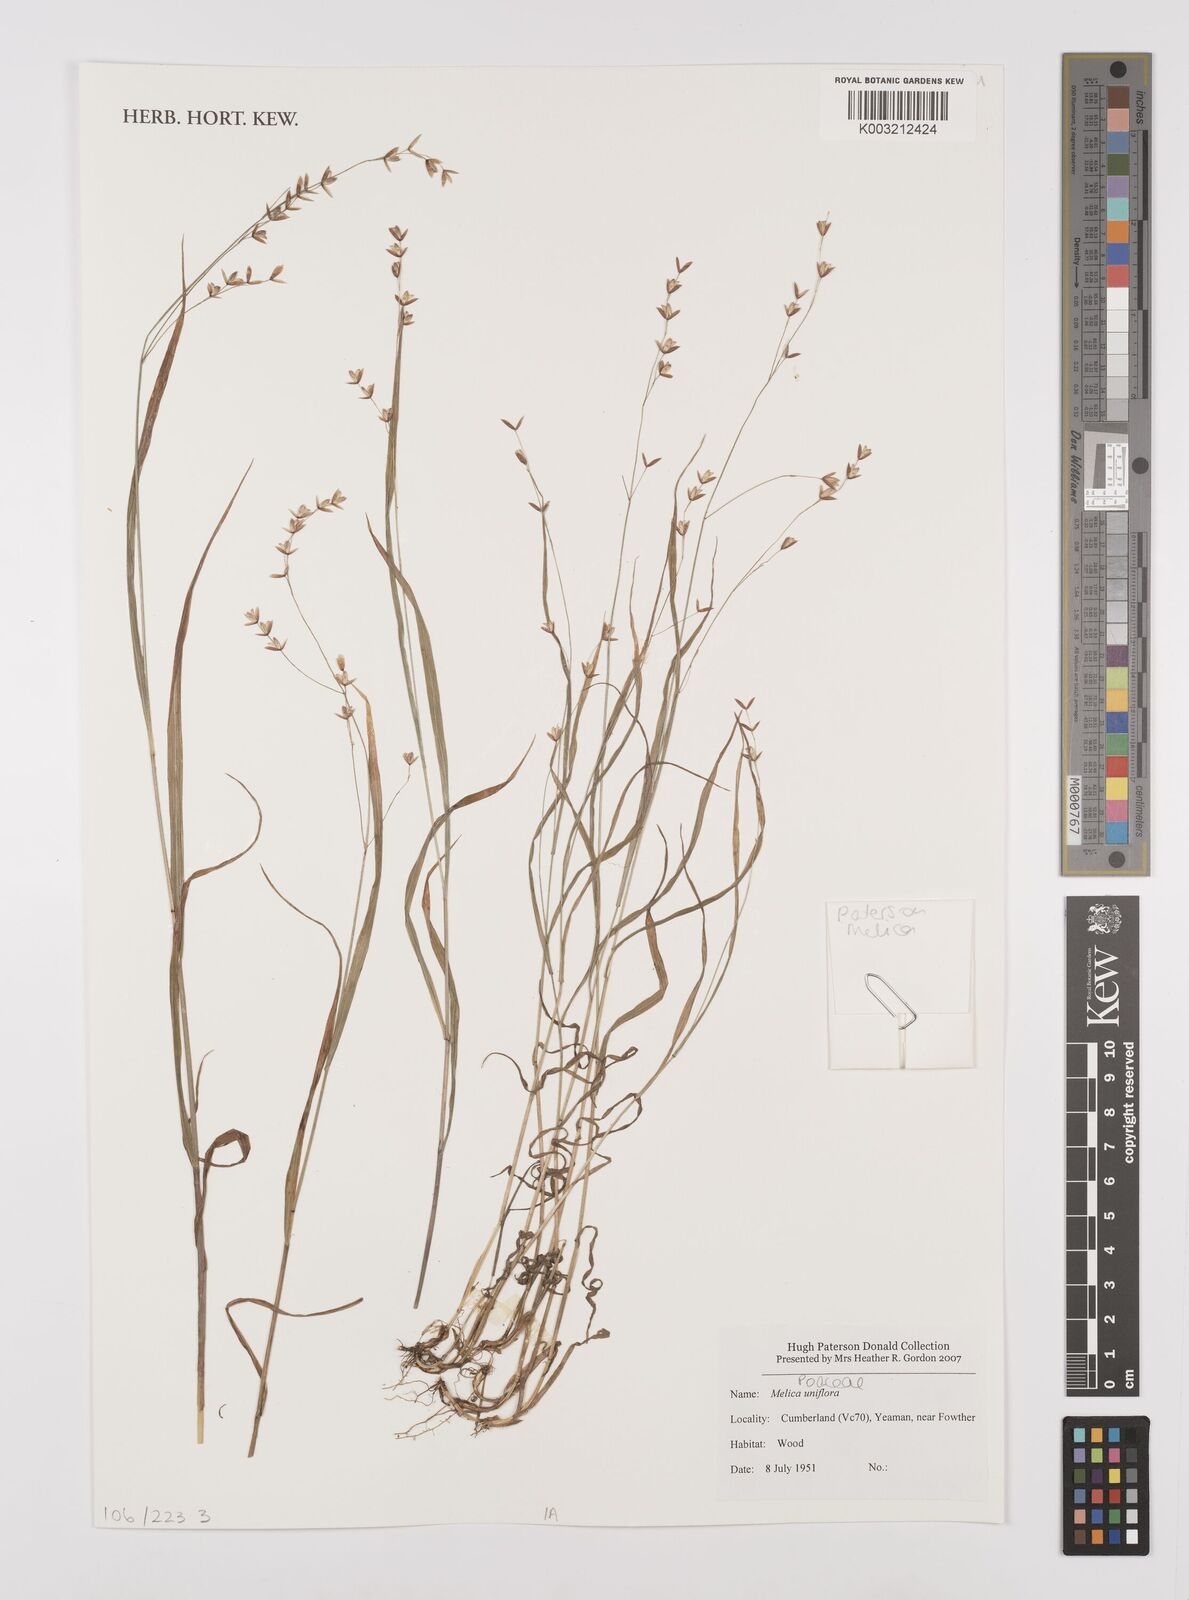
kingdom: Plantae
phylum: Tracheophyta
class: Liliopsida
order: Poales
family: Poaceae
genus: Melica
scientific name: Melica uniflora
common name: Wood melick
